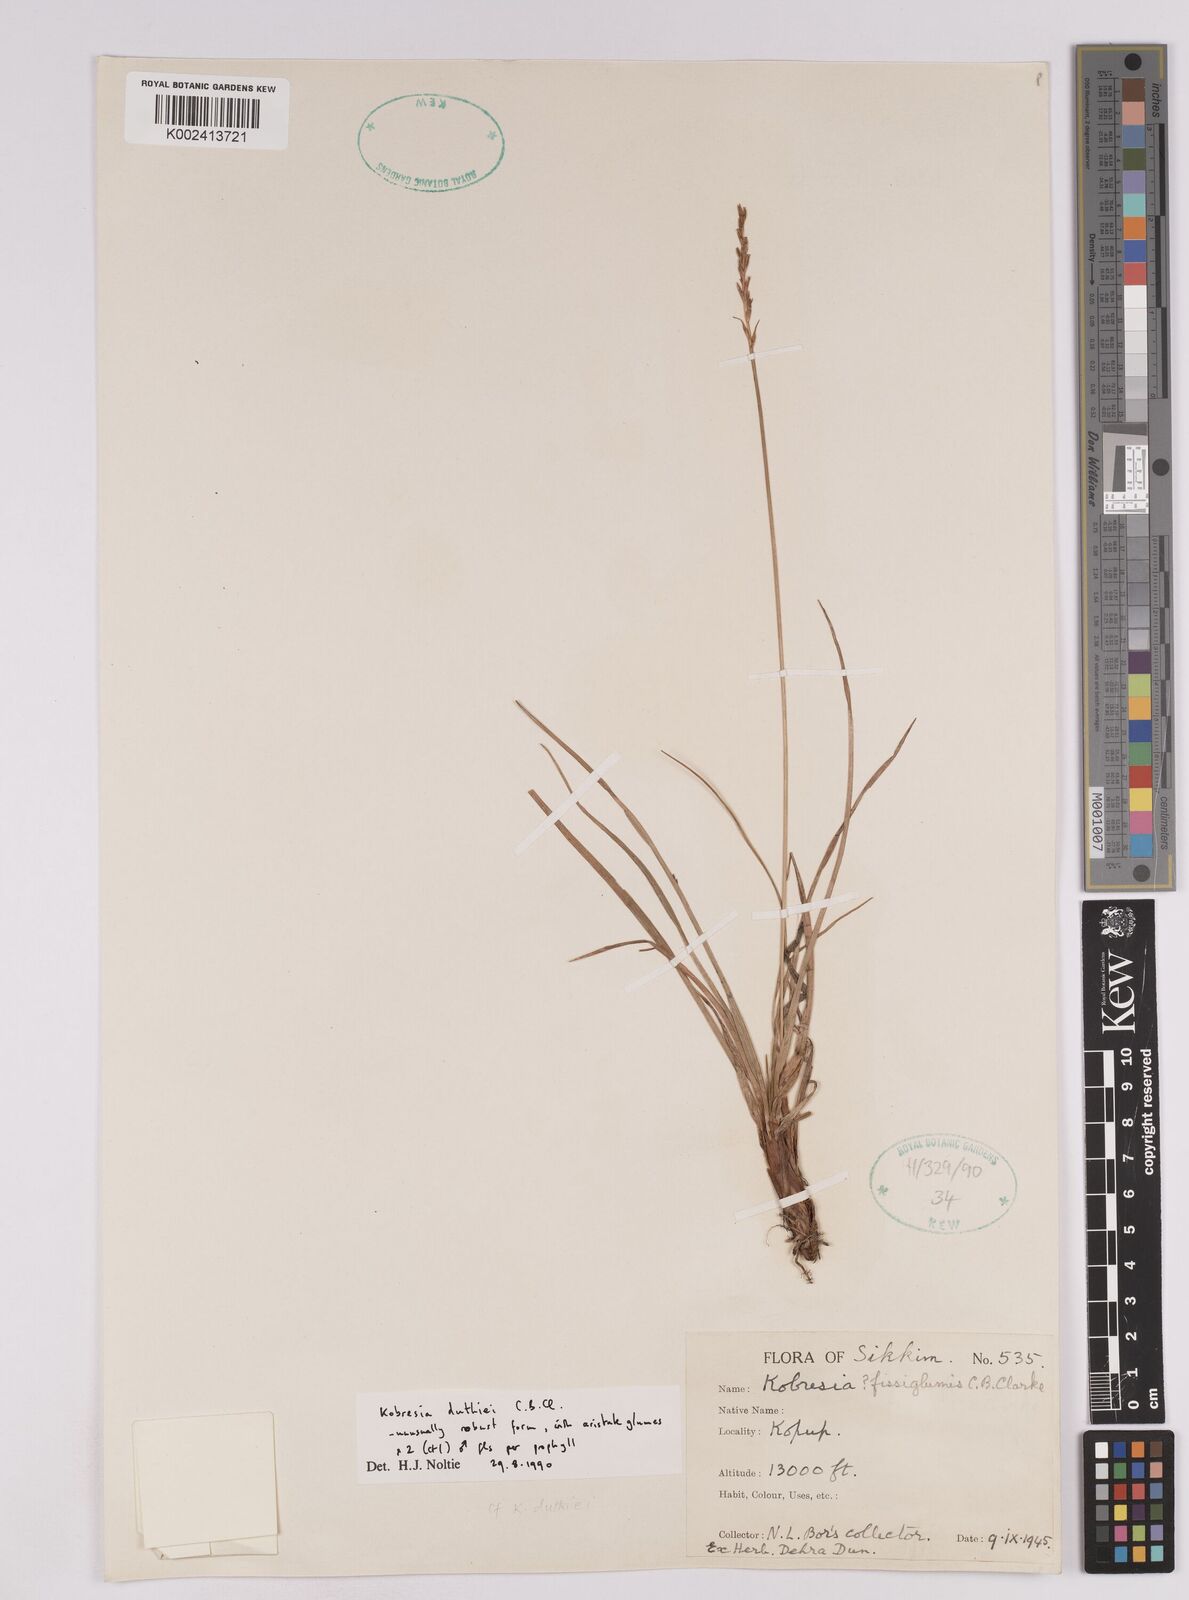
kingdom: Plantae
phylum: Tracheophyta
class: Liliopsida
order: Poales
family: Cyperaceae
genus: Carex
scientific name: Carex clavispica
